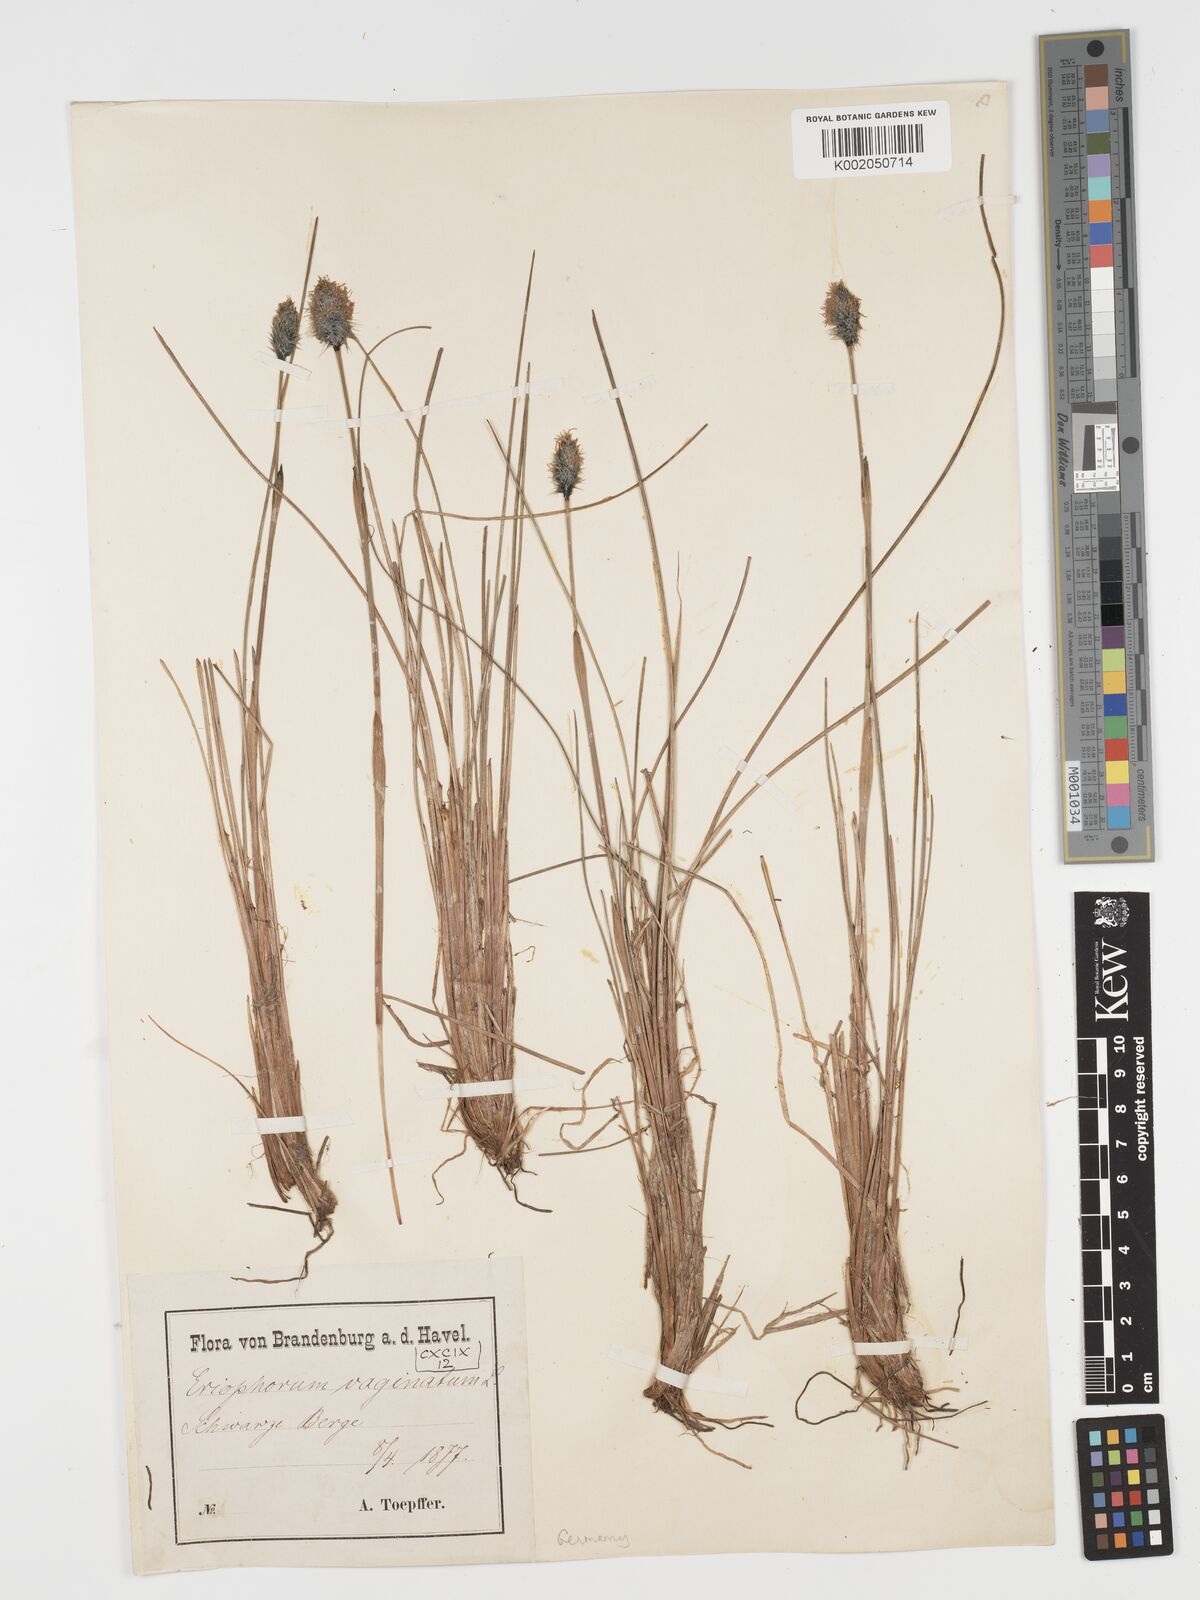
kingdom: Plantae
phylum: Tracheophyta
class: Liliopsida
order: Poales
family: Cyperaceae
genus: Eriophorum
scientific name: Eriophorum vaginatum
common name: Hare's-tail cottongrass
